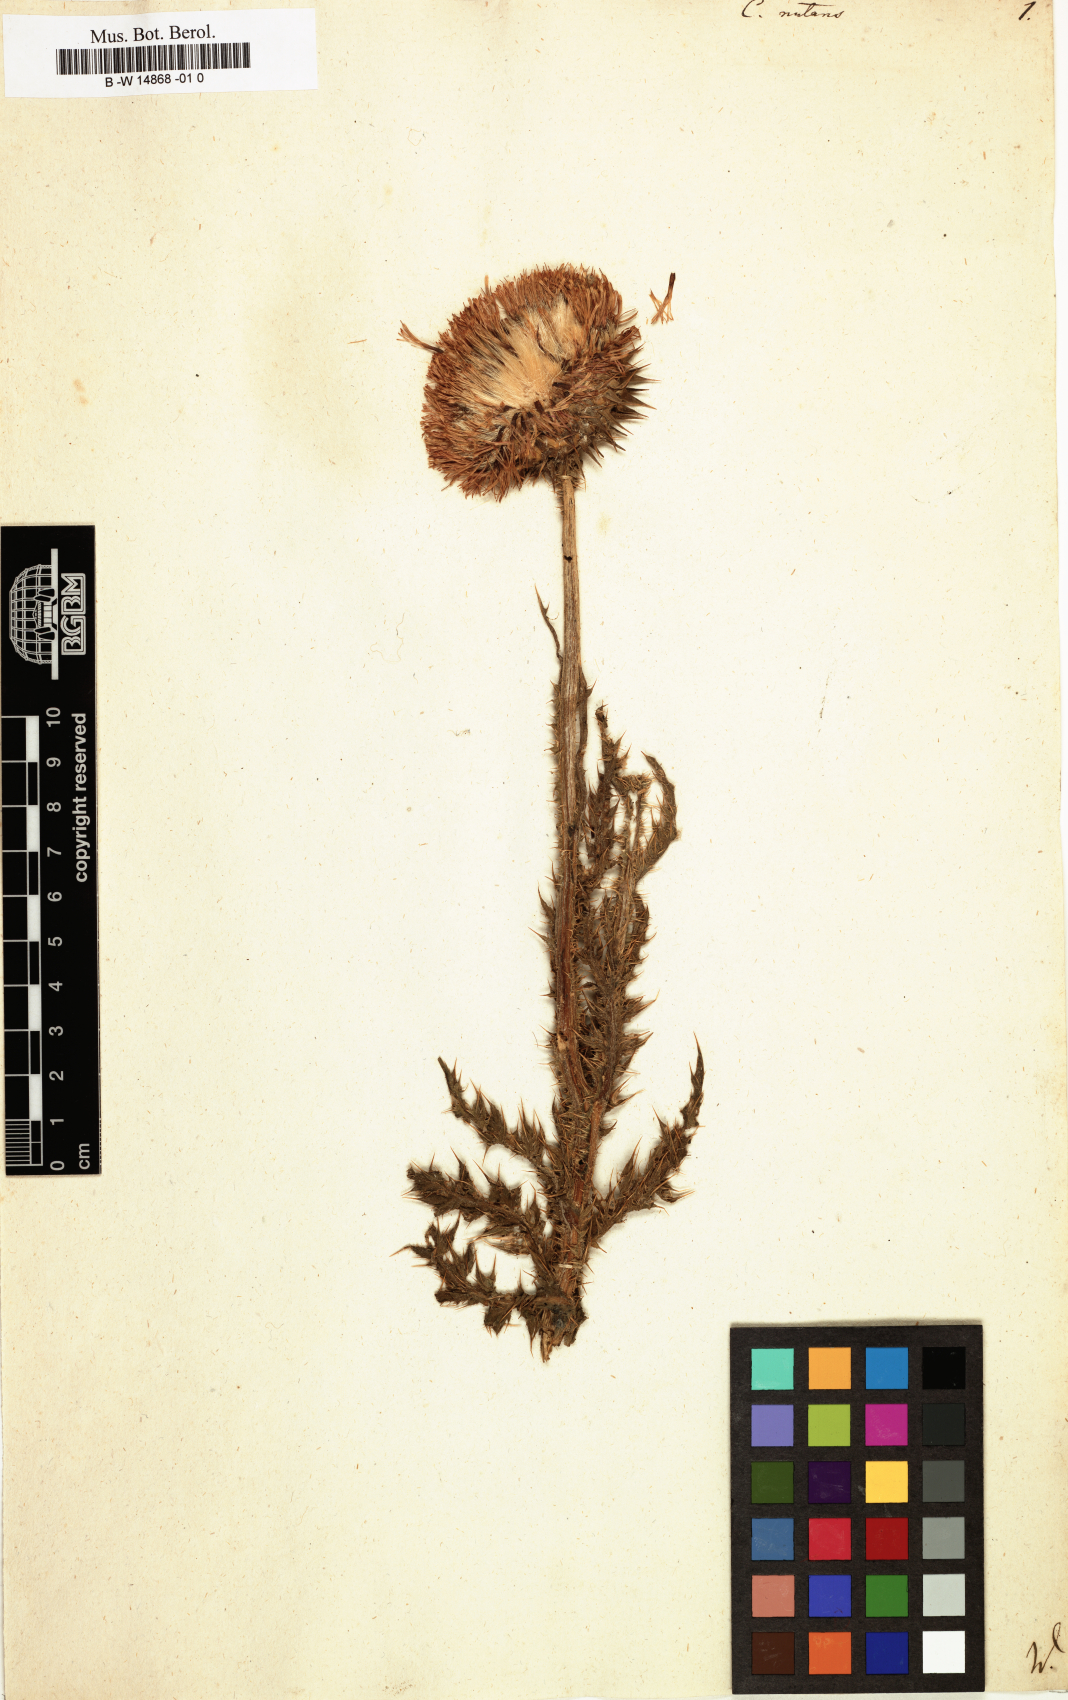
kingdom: Plantae
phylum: Tracheophyta
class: Magnoliopsida
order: Asterales
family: Asteraceae
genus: Carduus
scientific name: Carduus nutans
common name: Musk thistle
